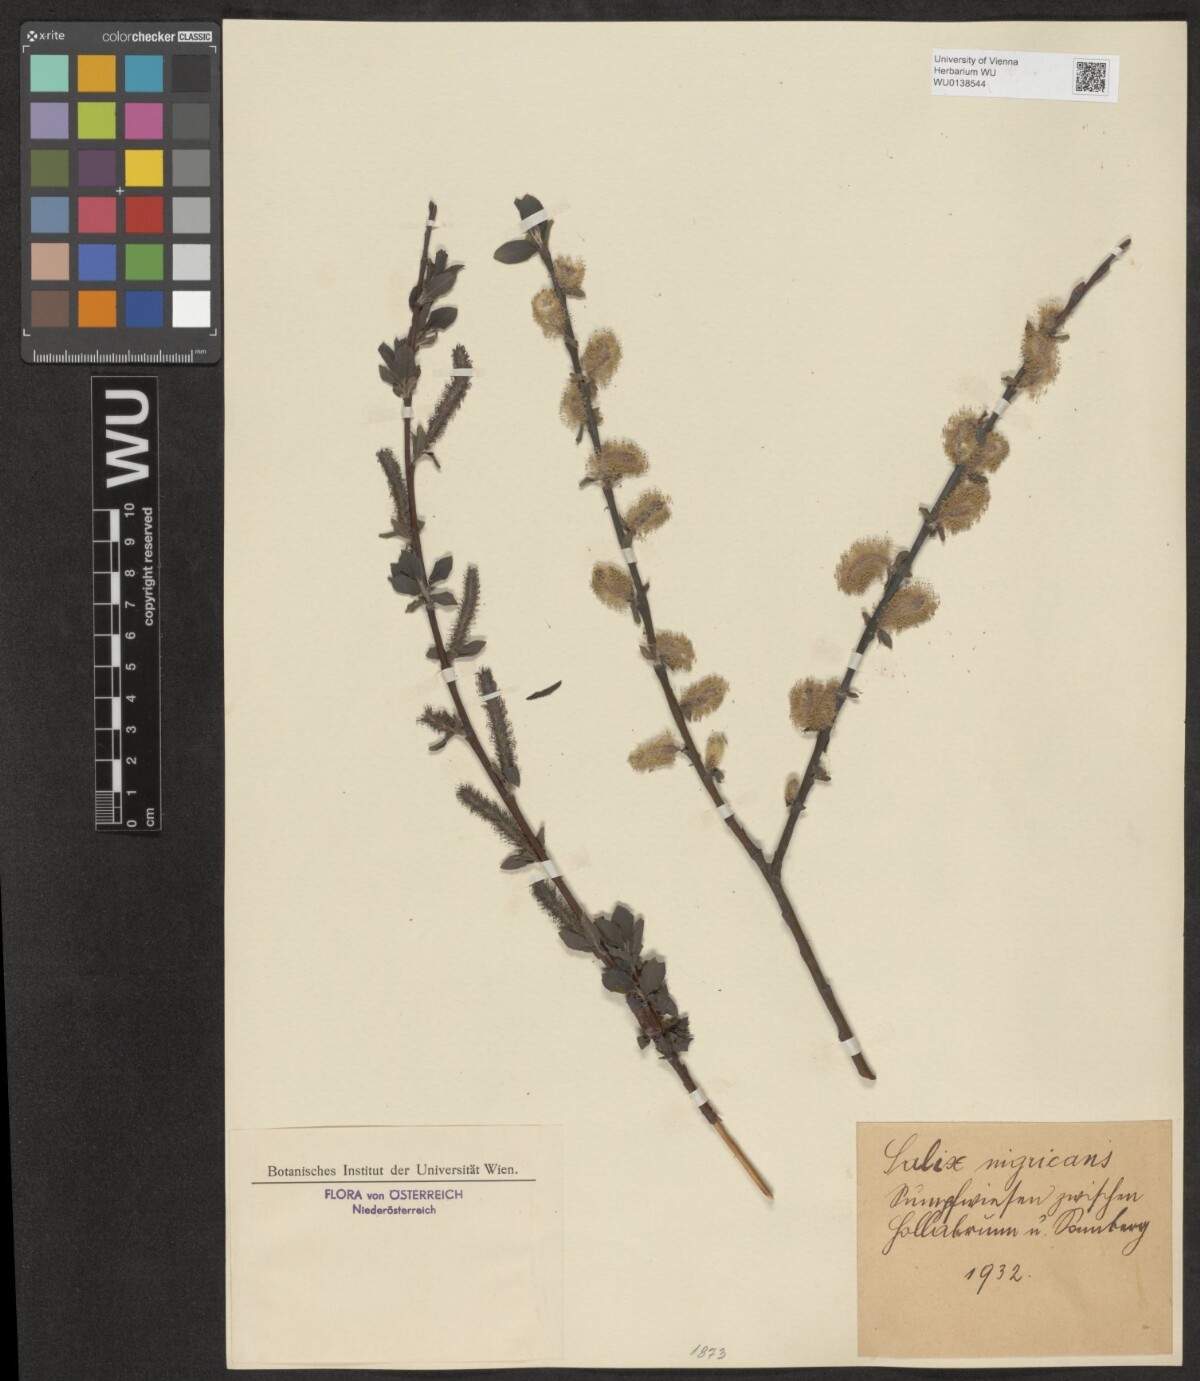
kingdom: Plantae
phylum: Tracheophyta
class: Magnoliopsida
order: Malpighiales
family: Salicaceae
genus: Salix
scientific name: Salix myrsinifolia
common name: Dark-leaved willow
